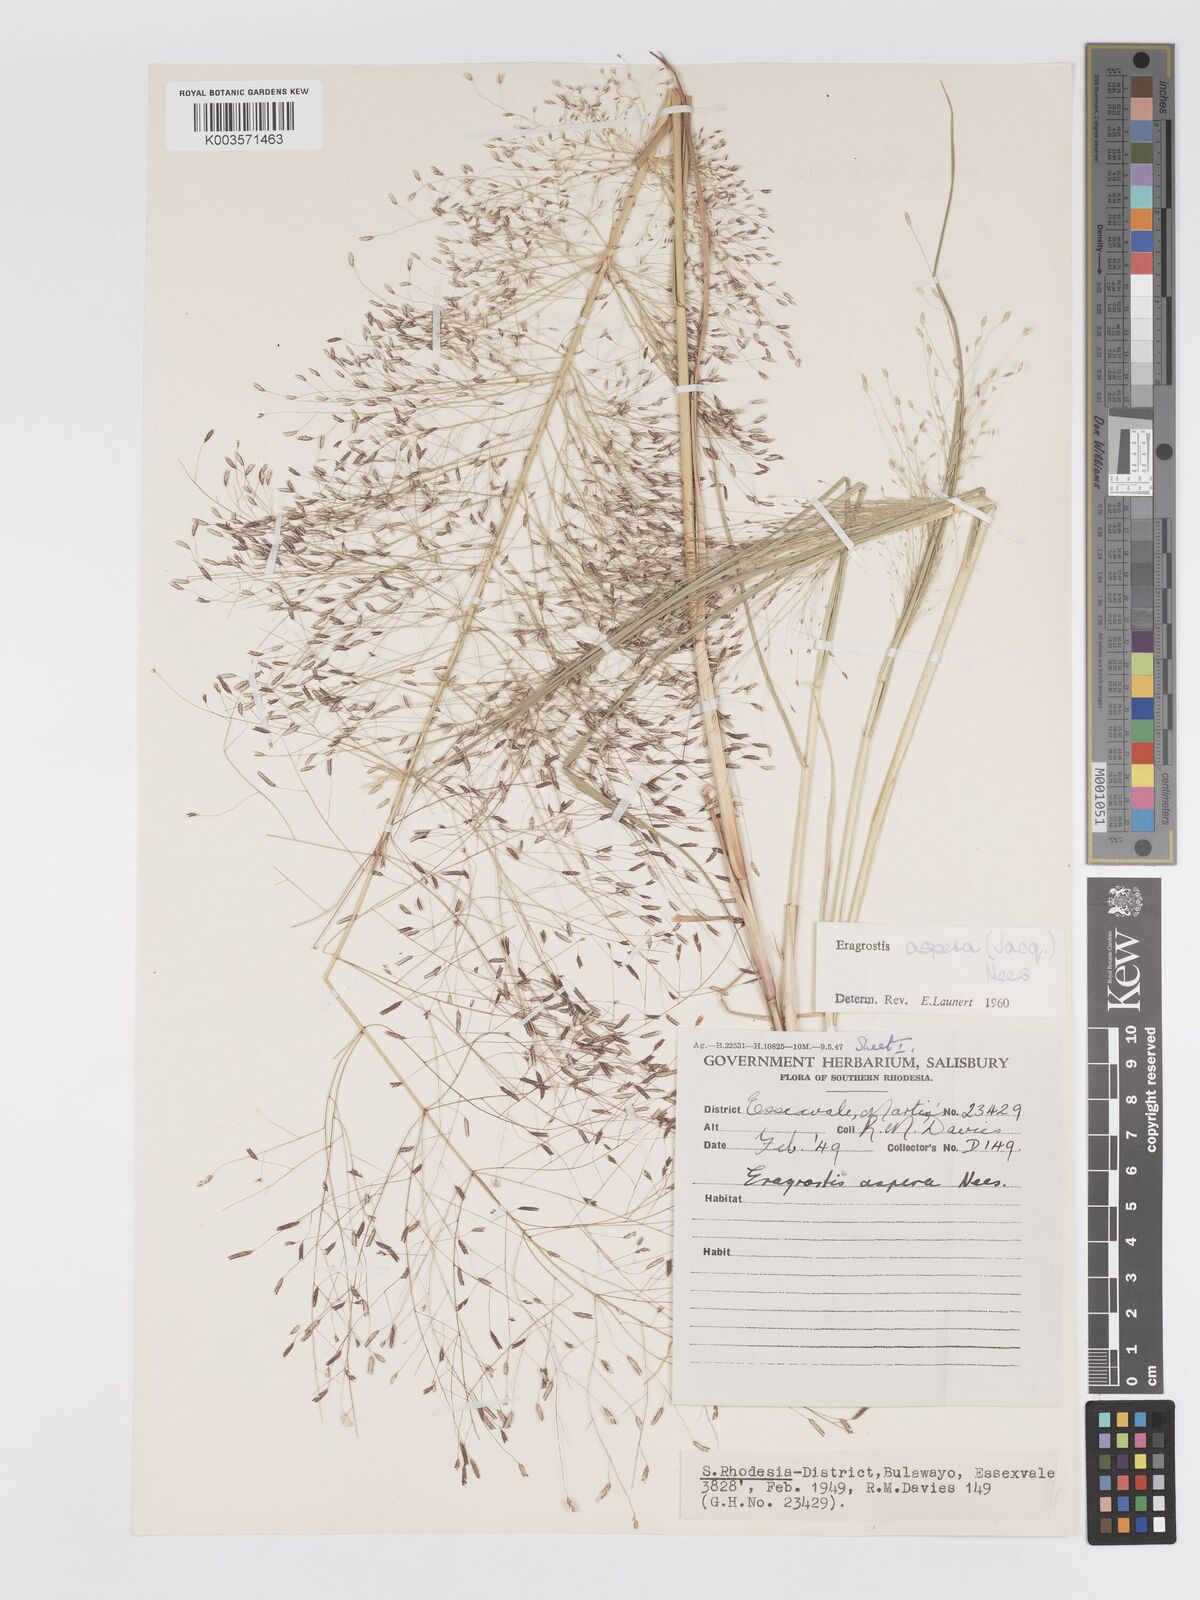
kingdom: Plantae
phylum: Tracheophyta
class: Liliopsida
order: Poales
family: Poaceae
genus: Eragrostis
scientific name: Eragrostis aspera
